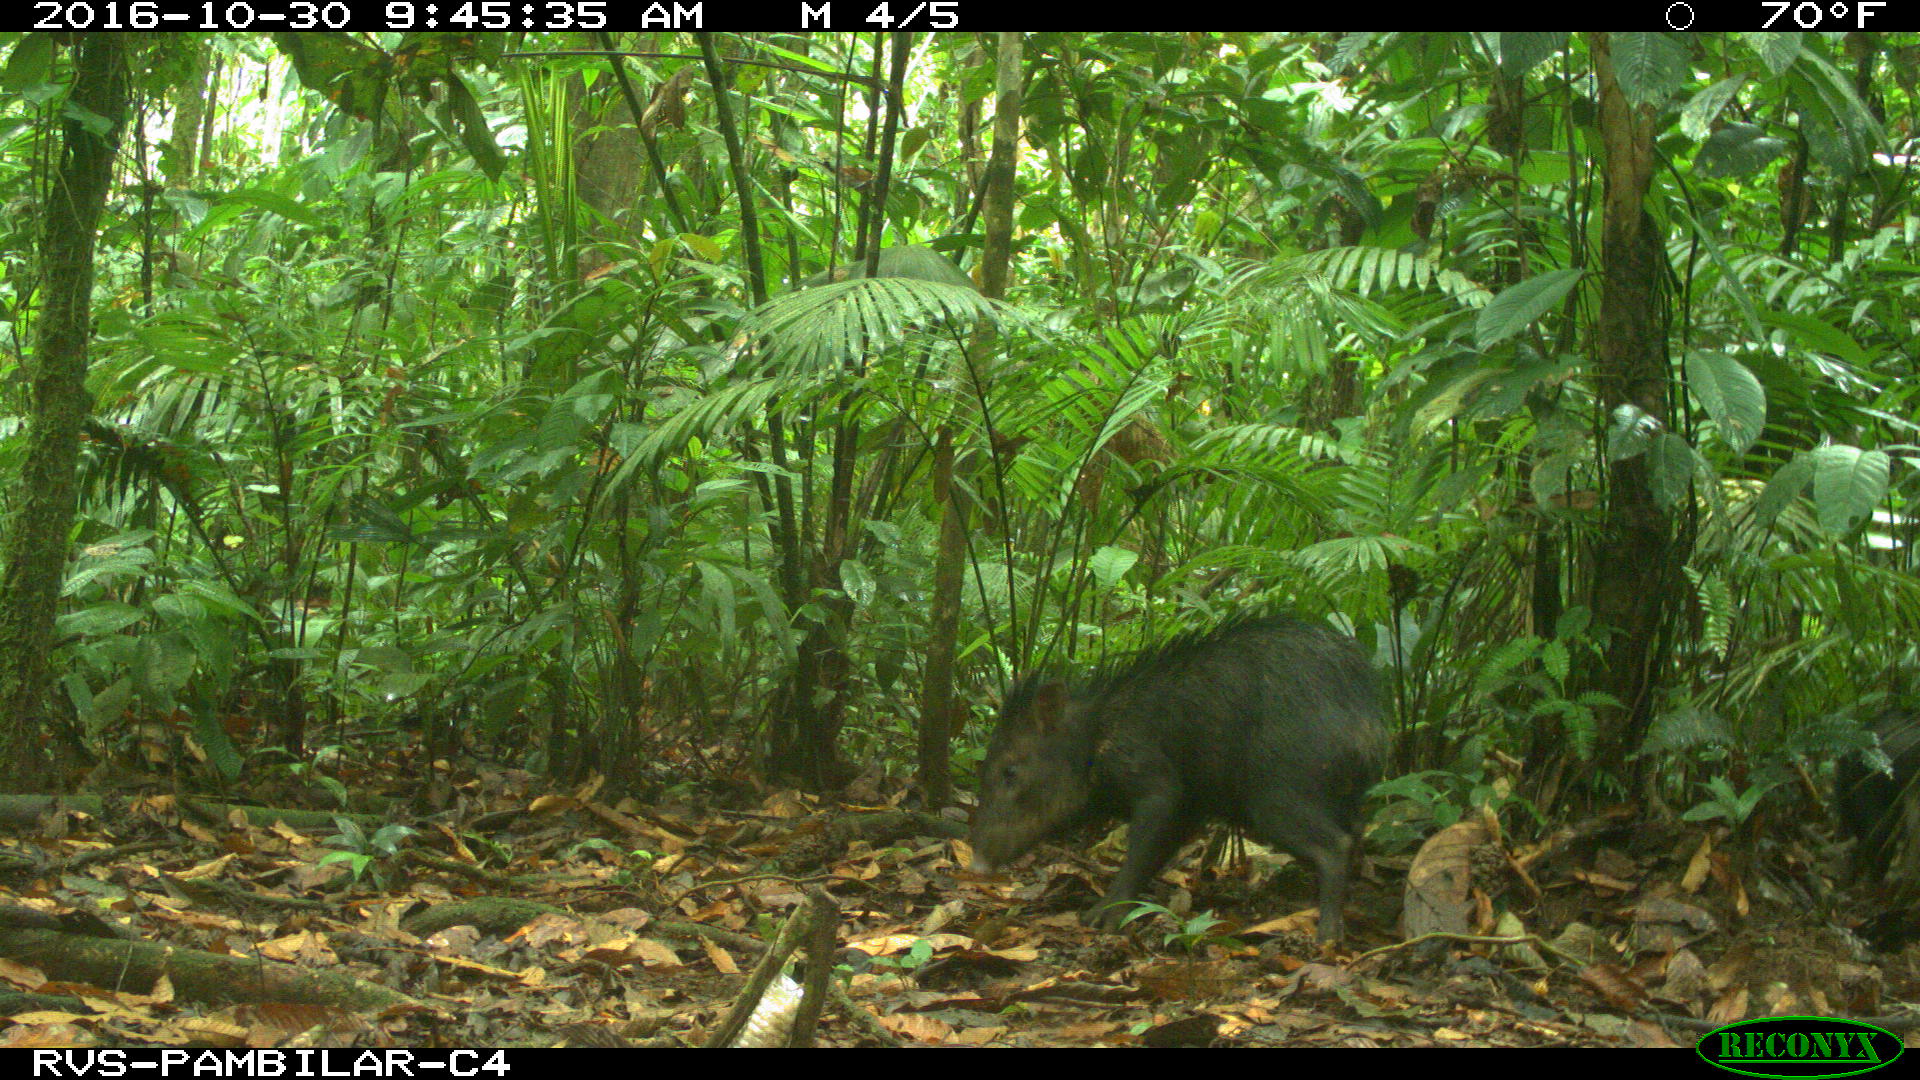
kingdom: Animalia
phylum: Chordata
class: Mammalia
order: Artiodactyla
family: Tayassuidae
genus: Tayassu
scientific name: Tayassu pecari
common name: White-lipped peccary
